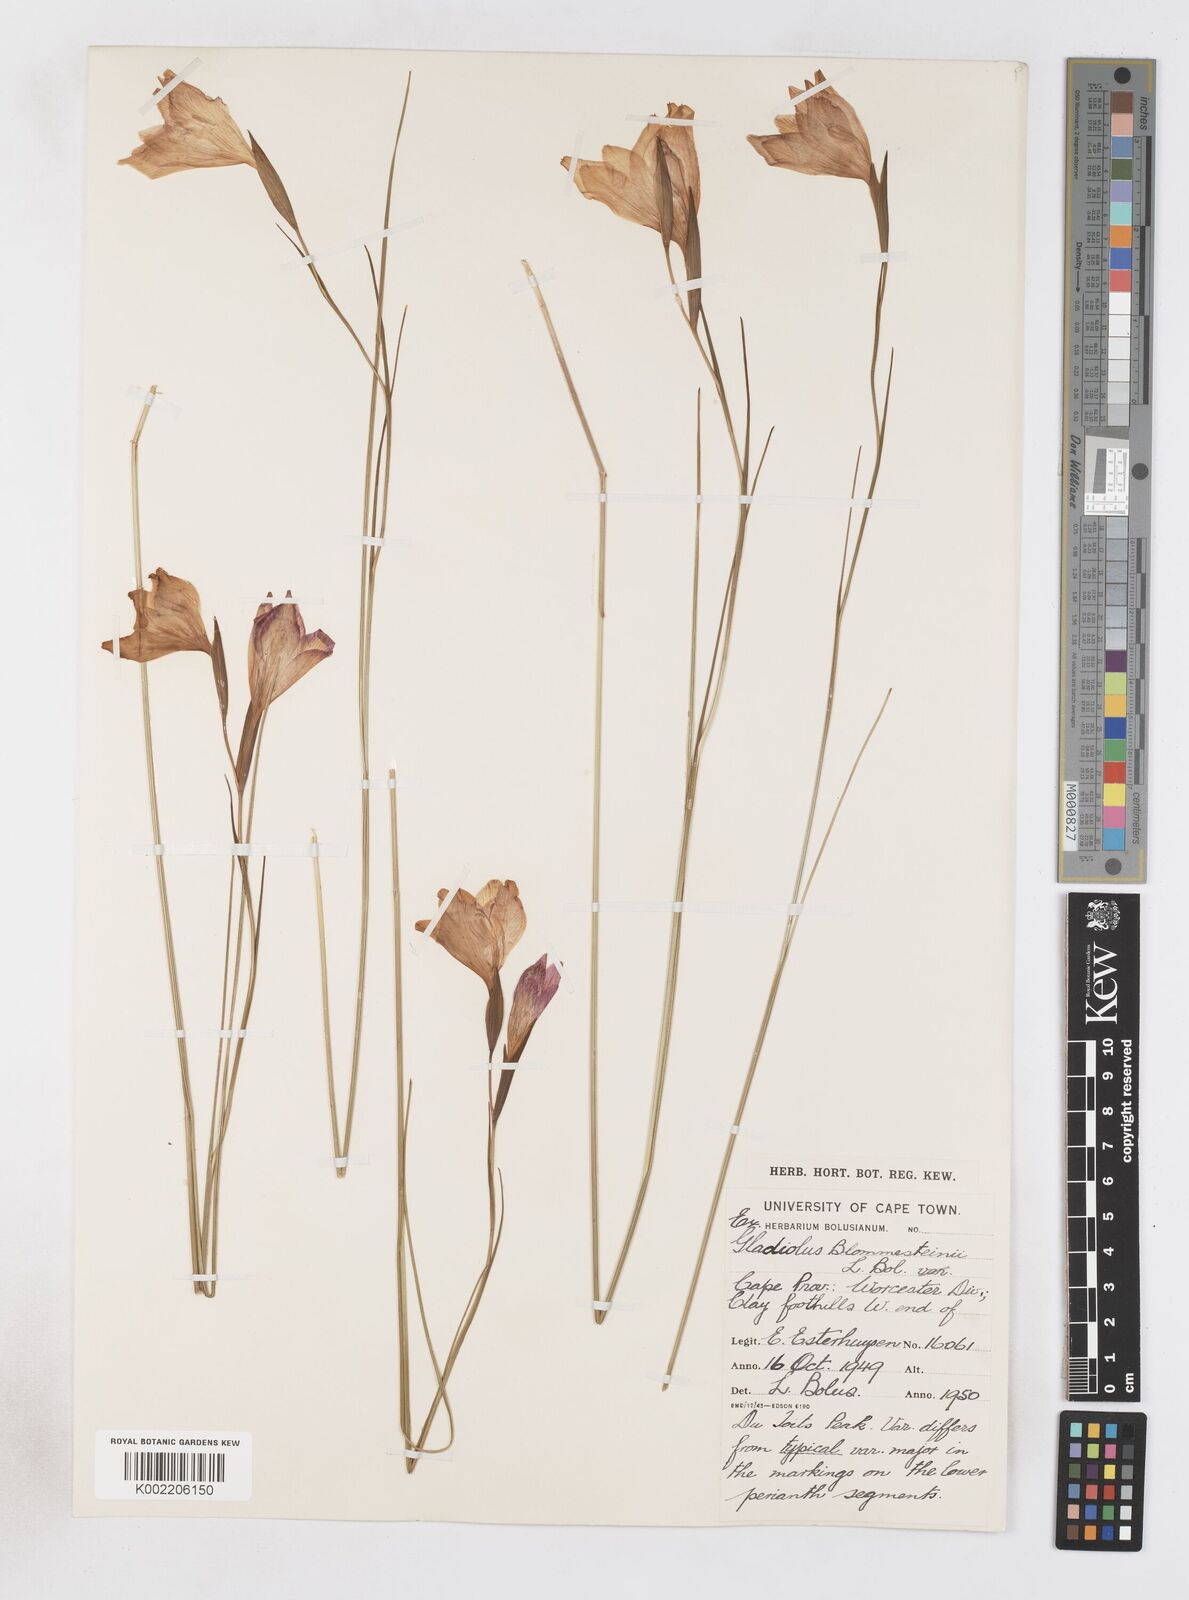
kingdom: Plantae
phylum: Tracheophyta
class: Liliopsida
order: Asparagales
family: Iridaceae
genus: Gladiolus
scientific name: Gladiolus virgatus
